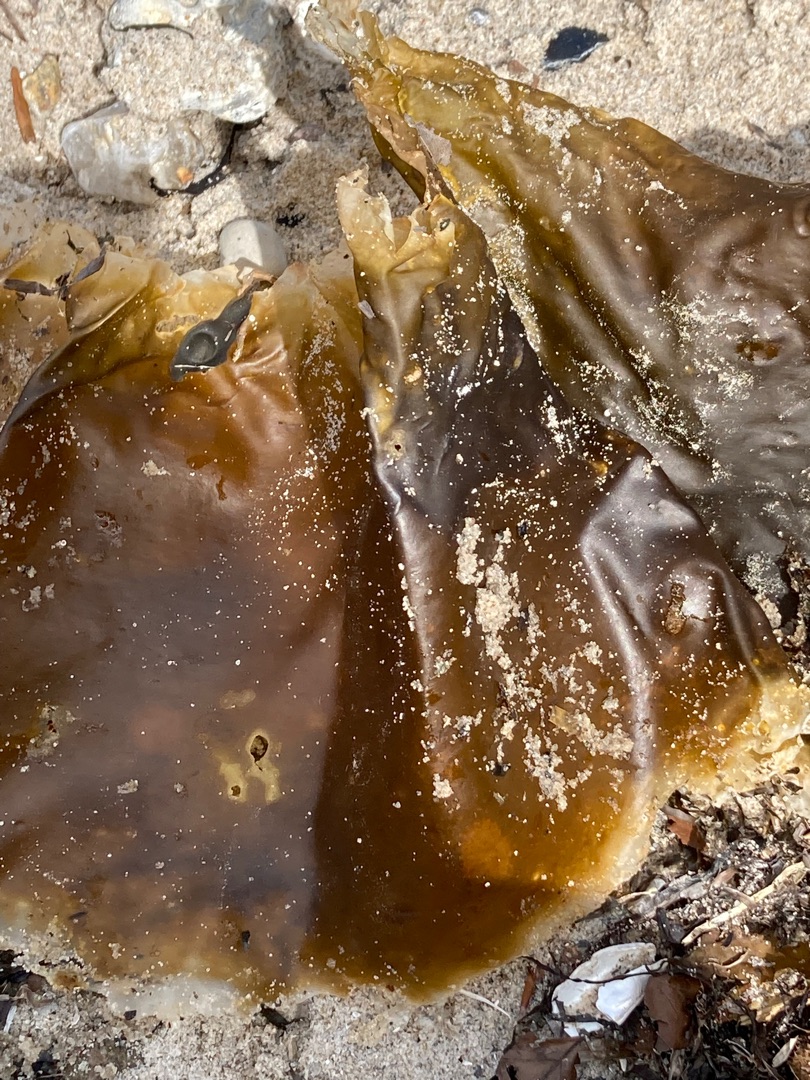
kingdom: Chromista
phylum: Ochrophyta
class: Phaeophyceae
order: Laminariales
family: Laminariaceae
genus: Saccharina
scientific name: Saccharina latissima
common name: Sukkertang
